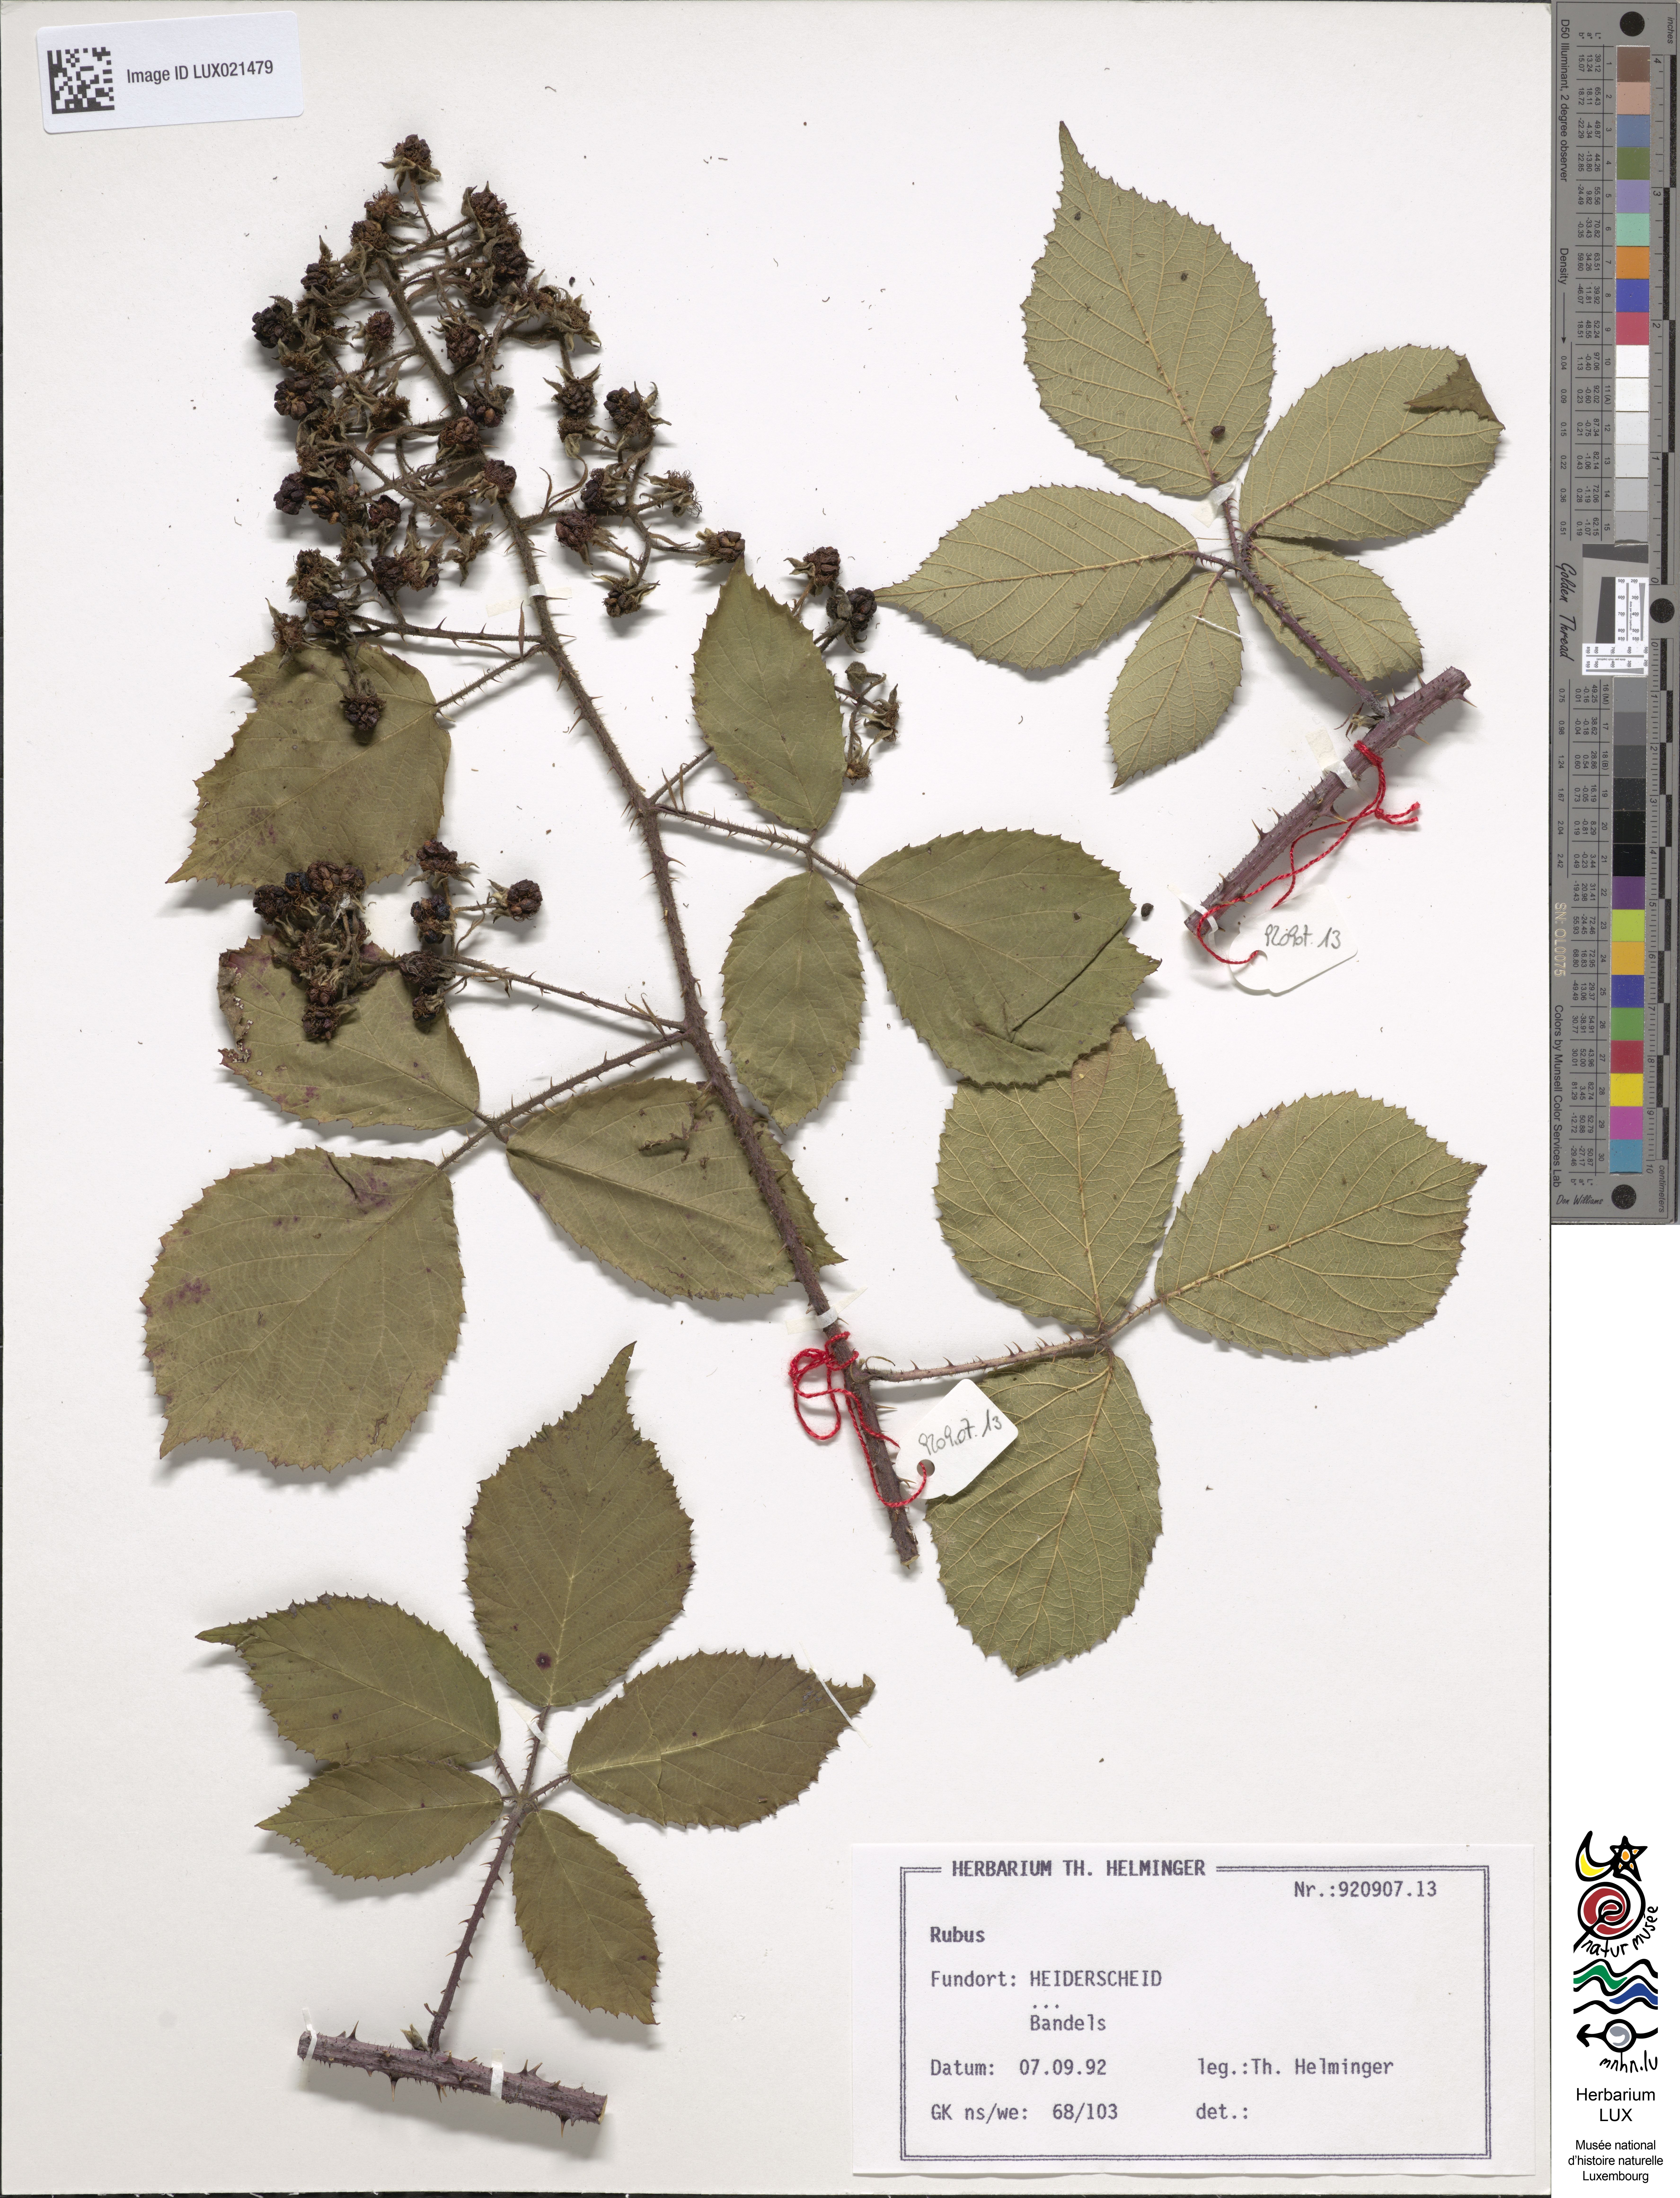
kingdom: Plantae
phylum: Tracheophyta
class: Magnoliopsida
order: Rosales
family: Rosaceae
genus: Rubus
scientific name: Rubus
